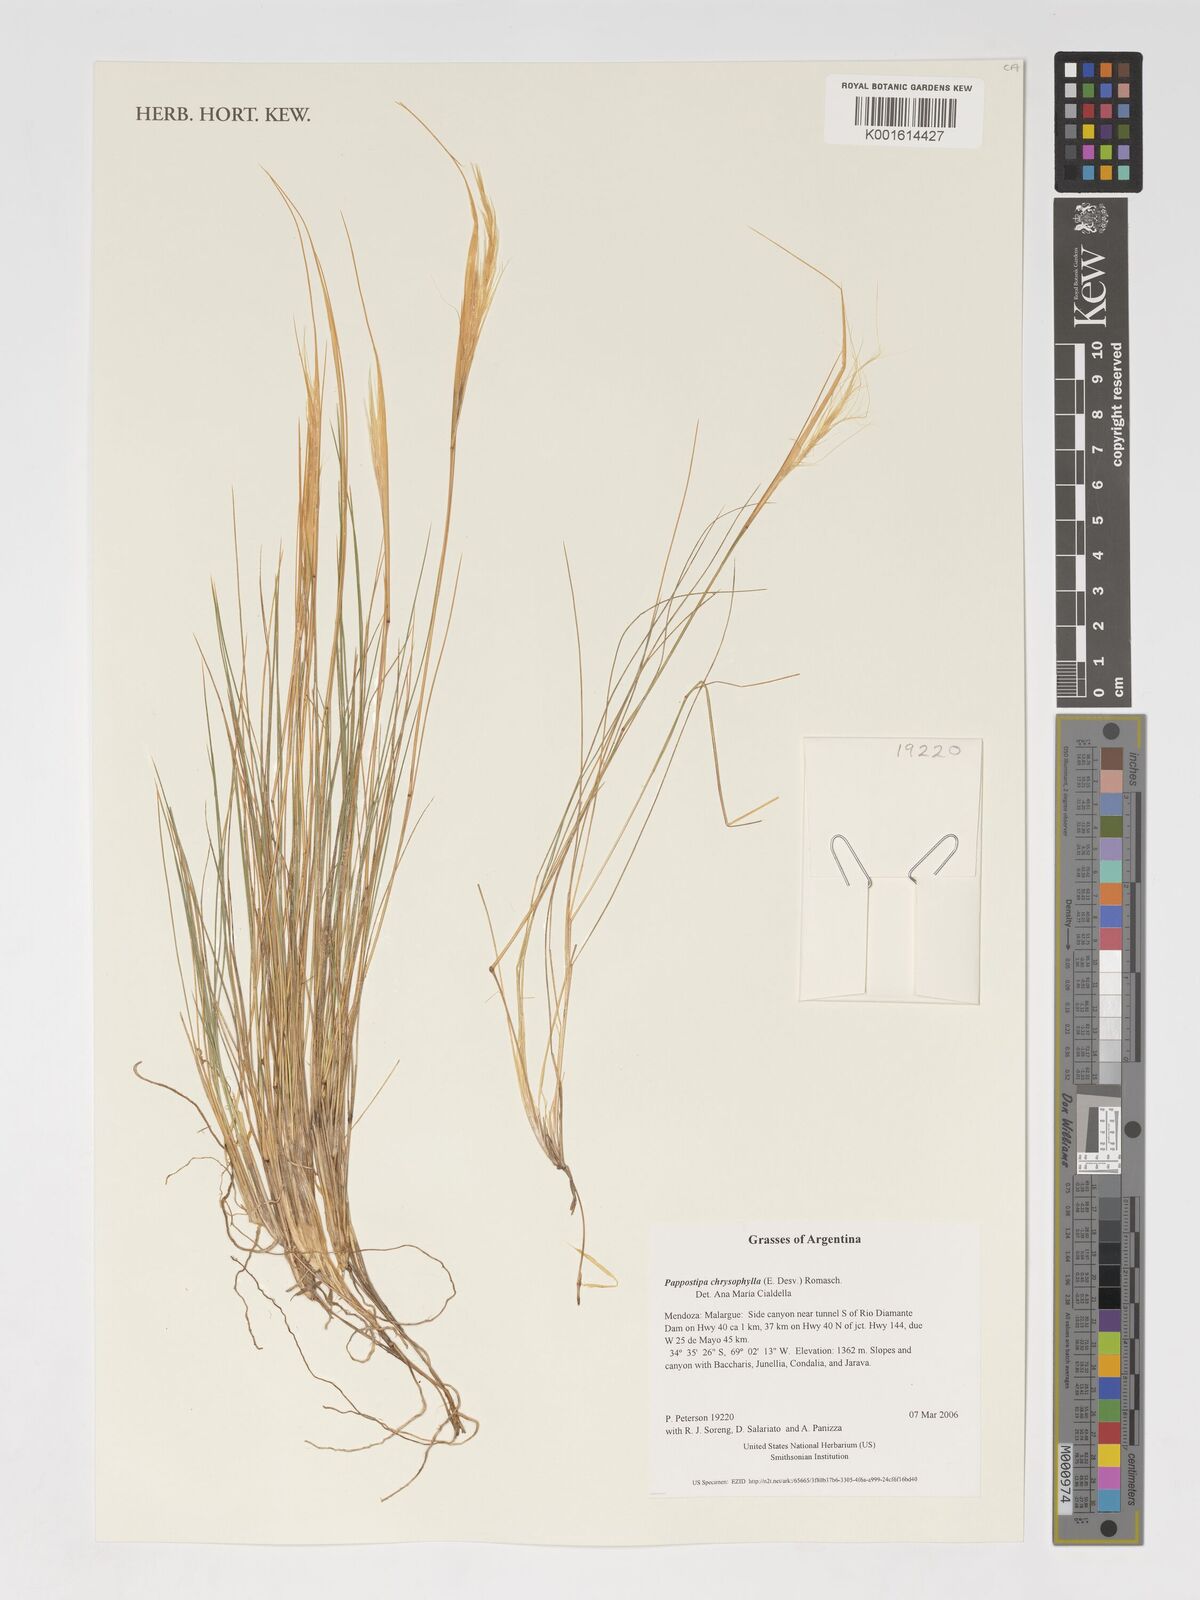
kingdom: Plantae
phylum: Tracheophyta
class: Liliopsida
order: Poales
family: Poaceae
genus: Pappostipa
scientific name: Pappostipa chrysophylla
